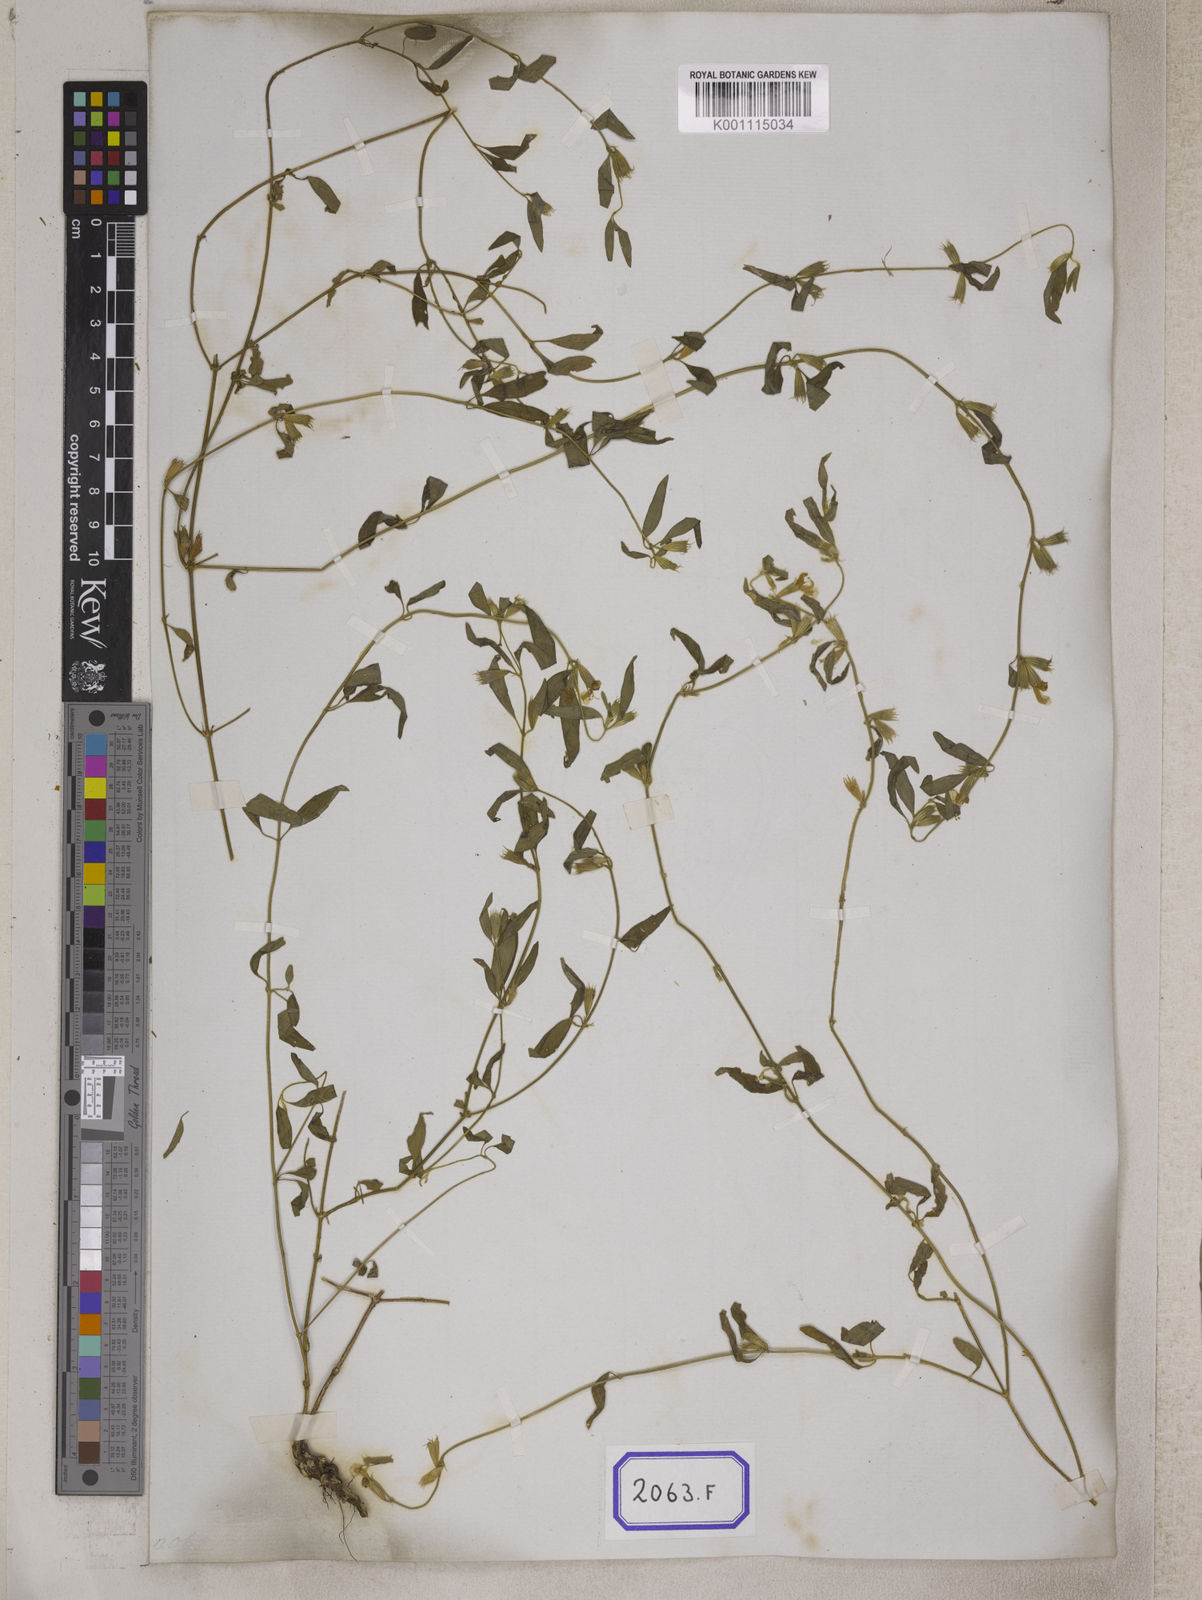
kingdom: Plantae
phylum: Tracheophyta
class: Magnoliopsida
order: Lamiales
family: Lamiaceae
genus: Leucas
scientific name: Leucas
